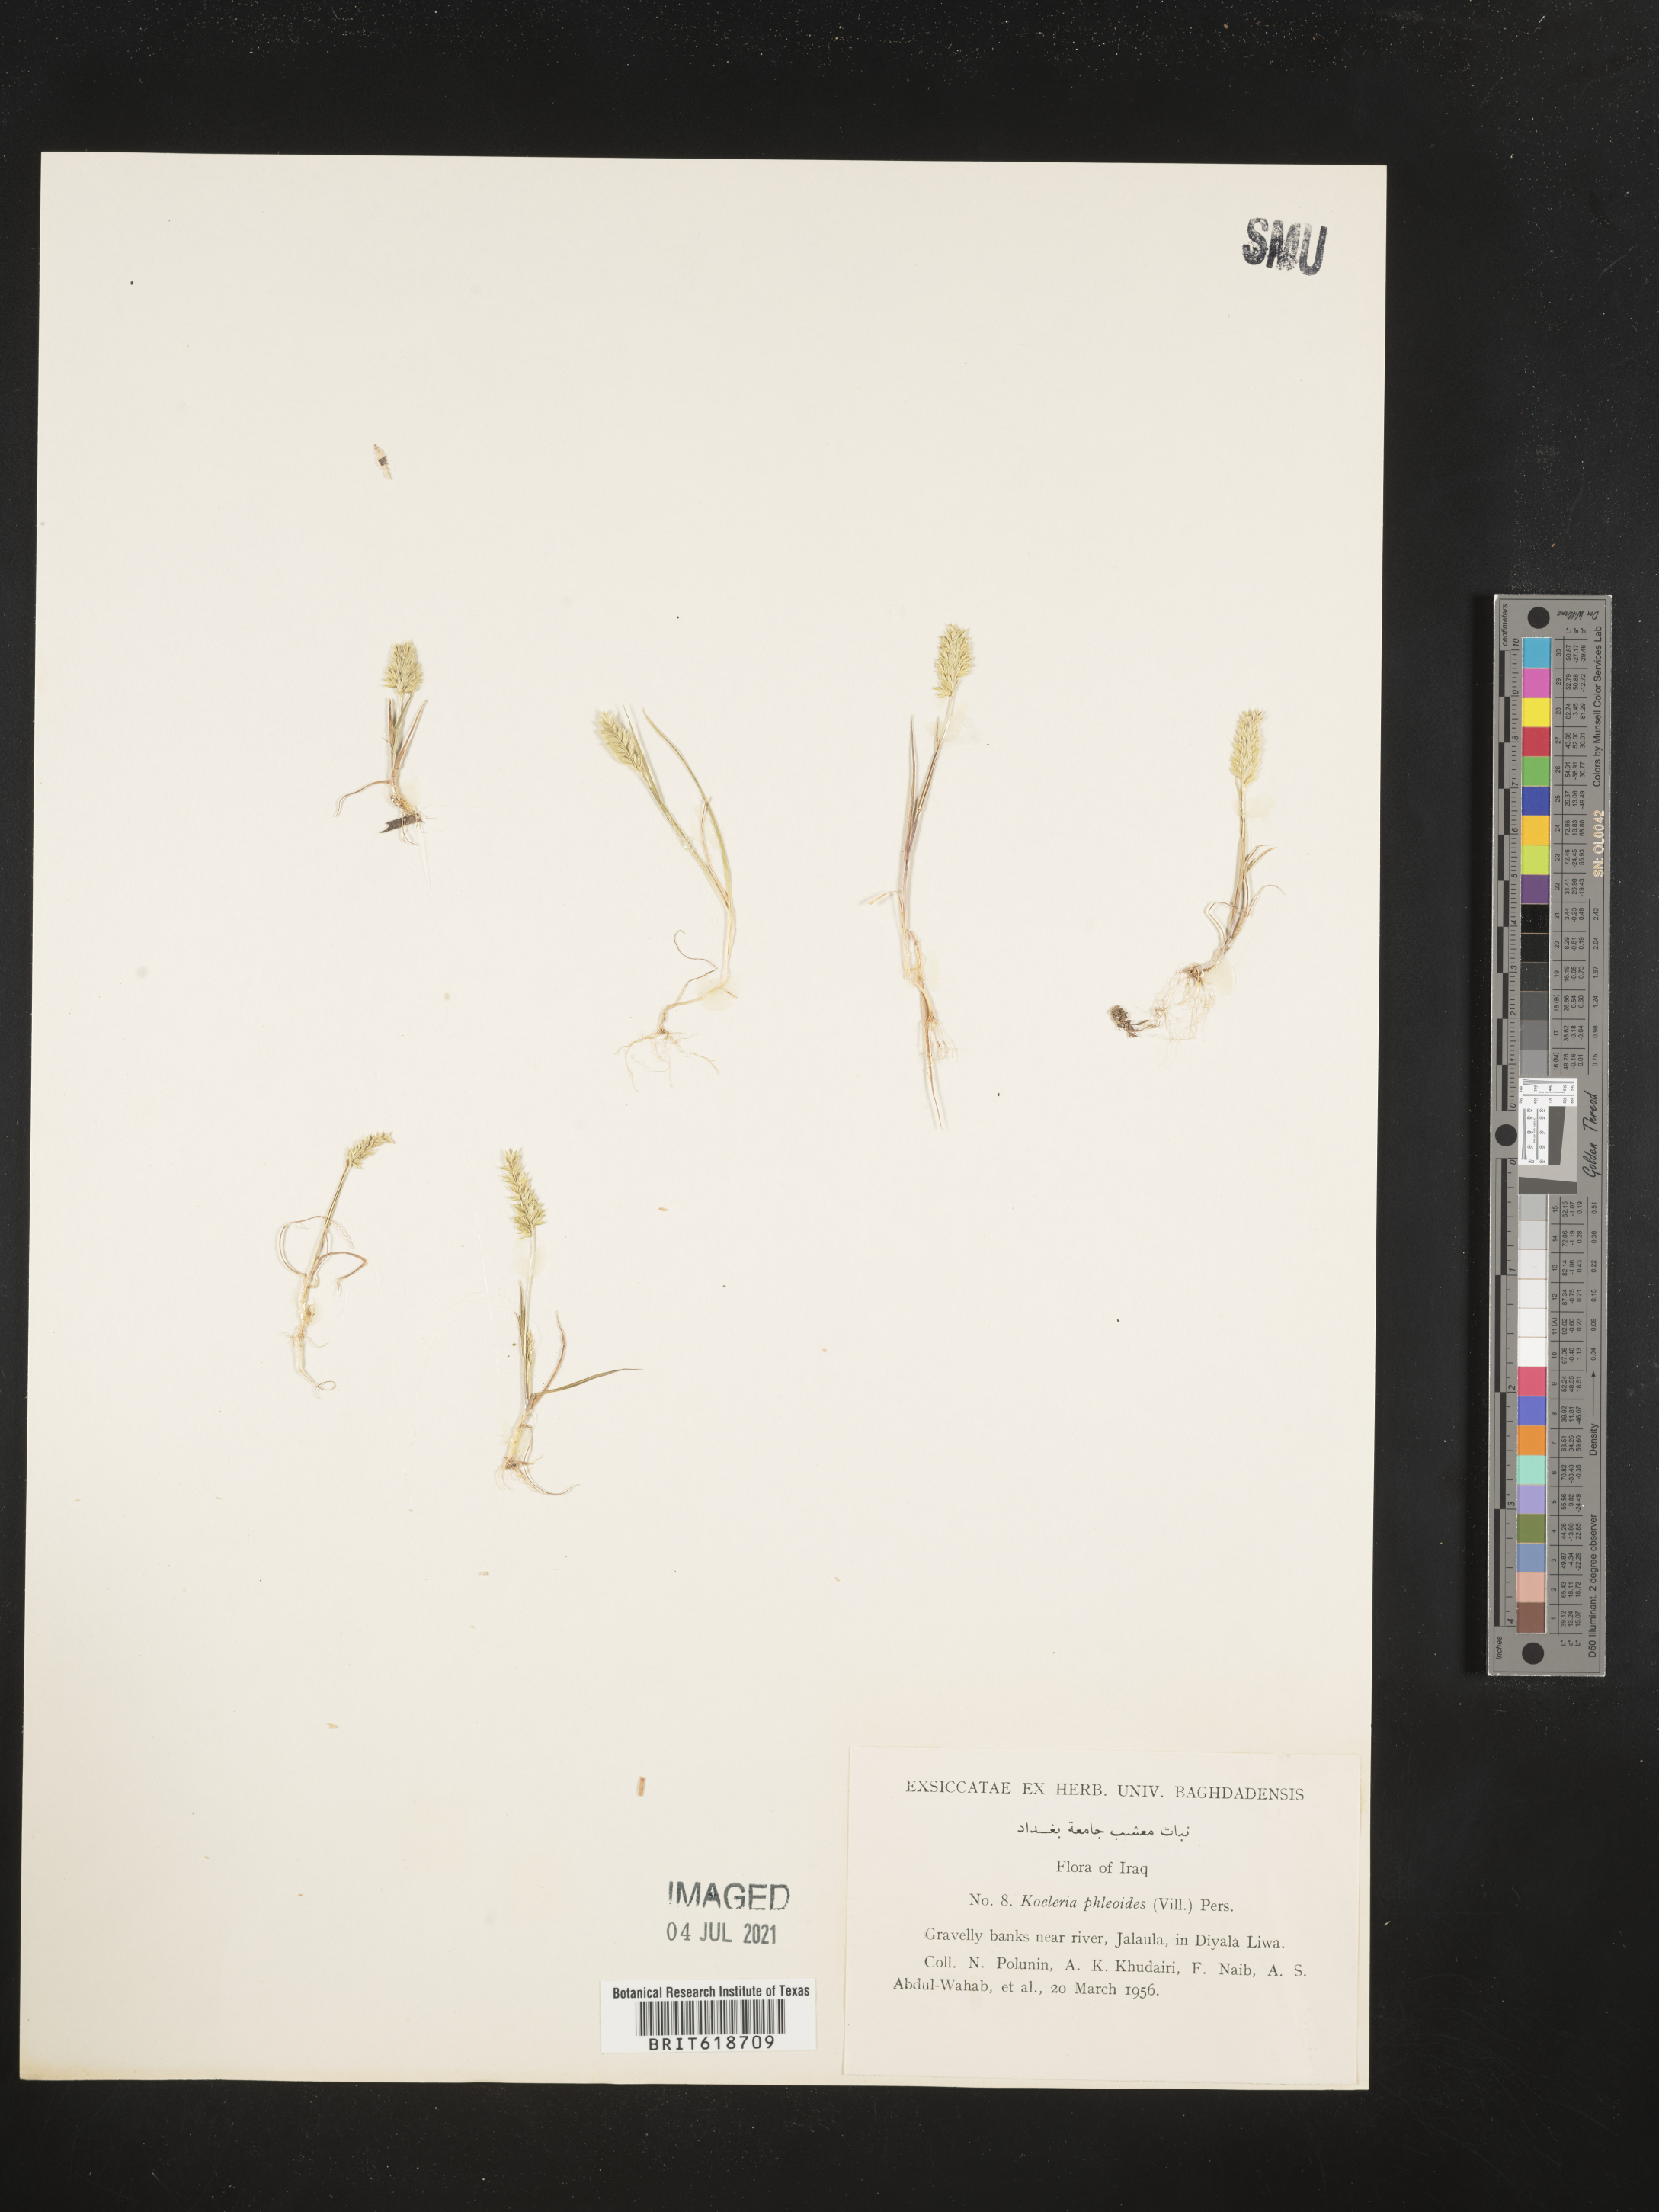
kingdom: Plantae
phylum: Tracheophyta
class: Liliopsida
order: Poales
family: Poaceae
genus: Rostraria
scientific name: Rostraria cristata
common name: Mediterranean hair-grass
